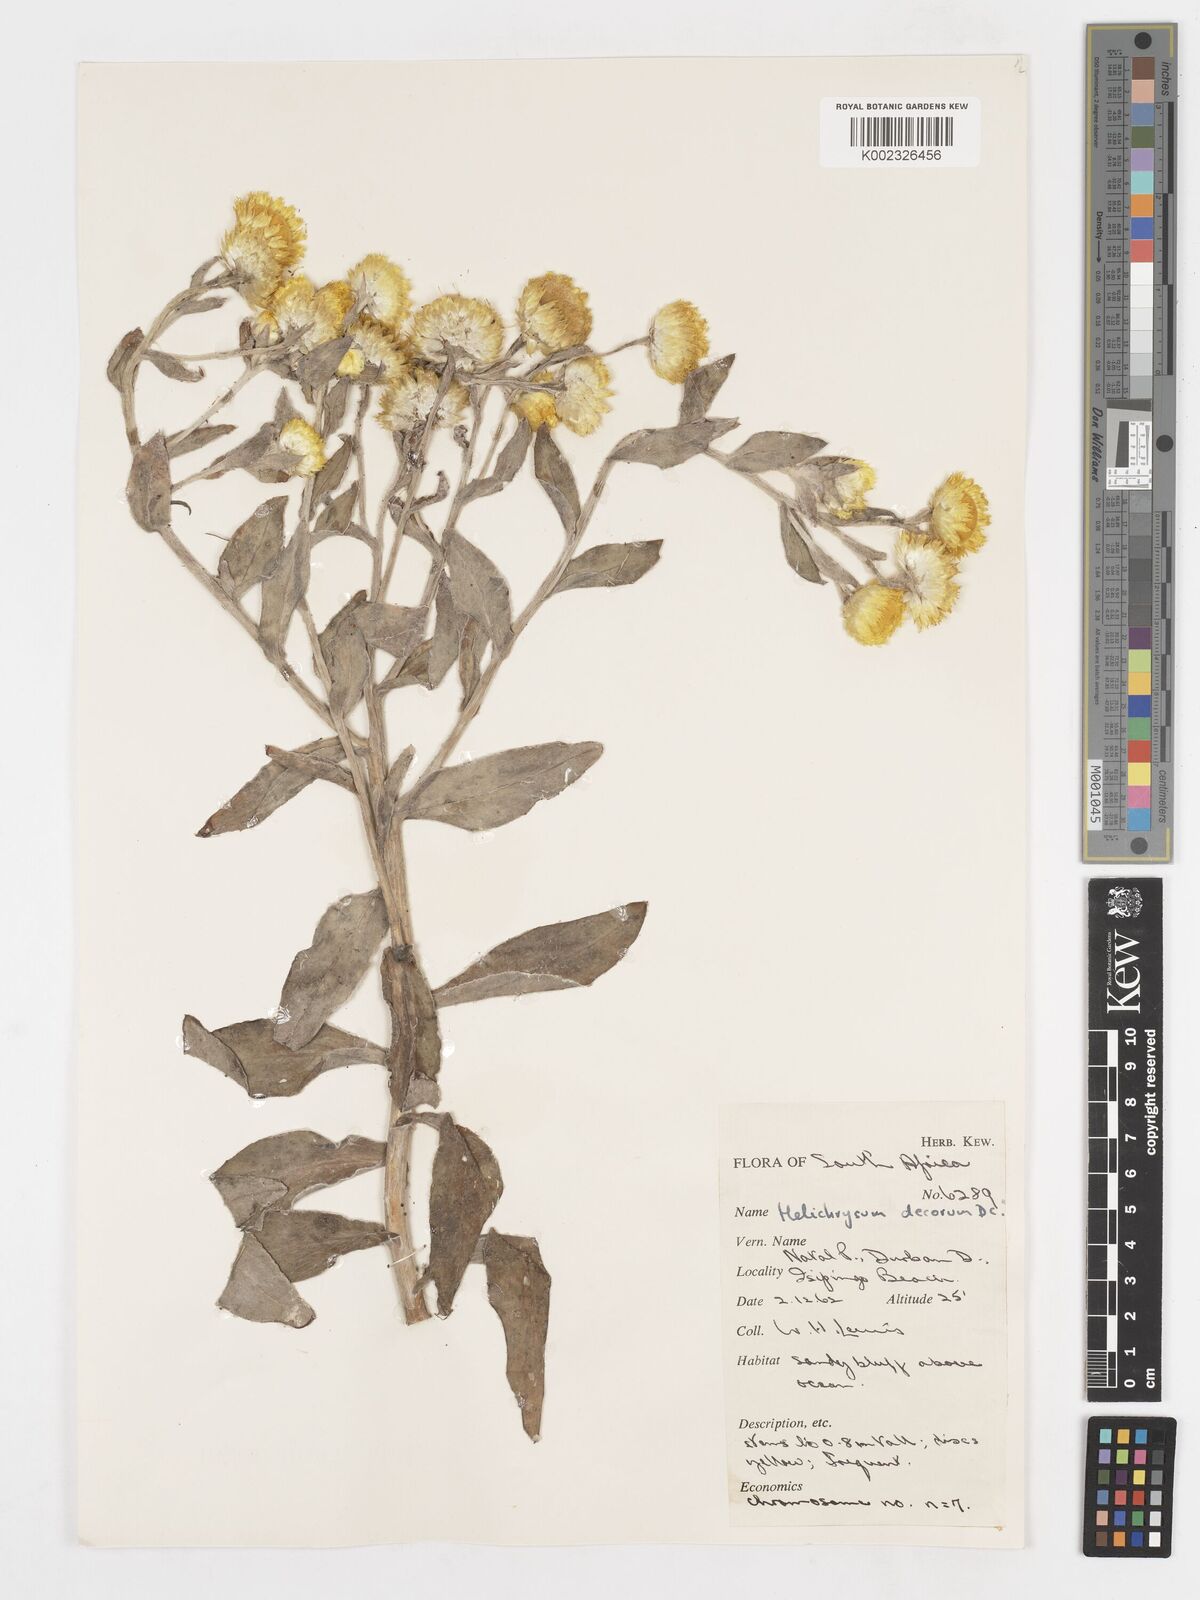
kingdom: Plantae
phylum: Tracheophyta
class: Magnoliopsida
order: Asterales
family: Asteraceae
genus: Helichrysum
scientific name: Helichrysum decorum
